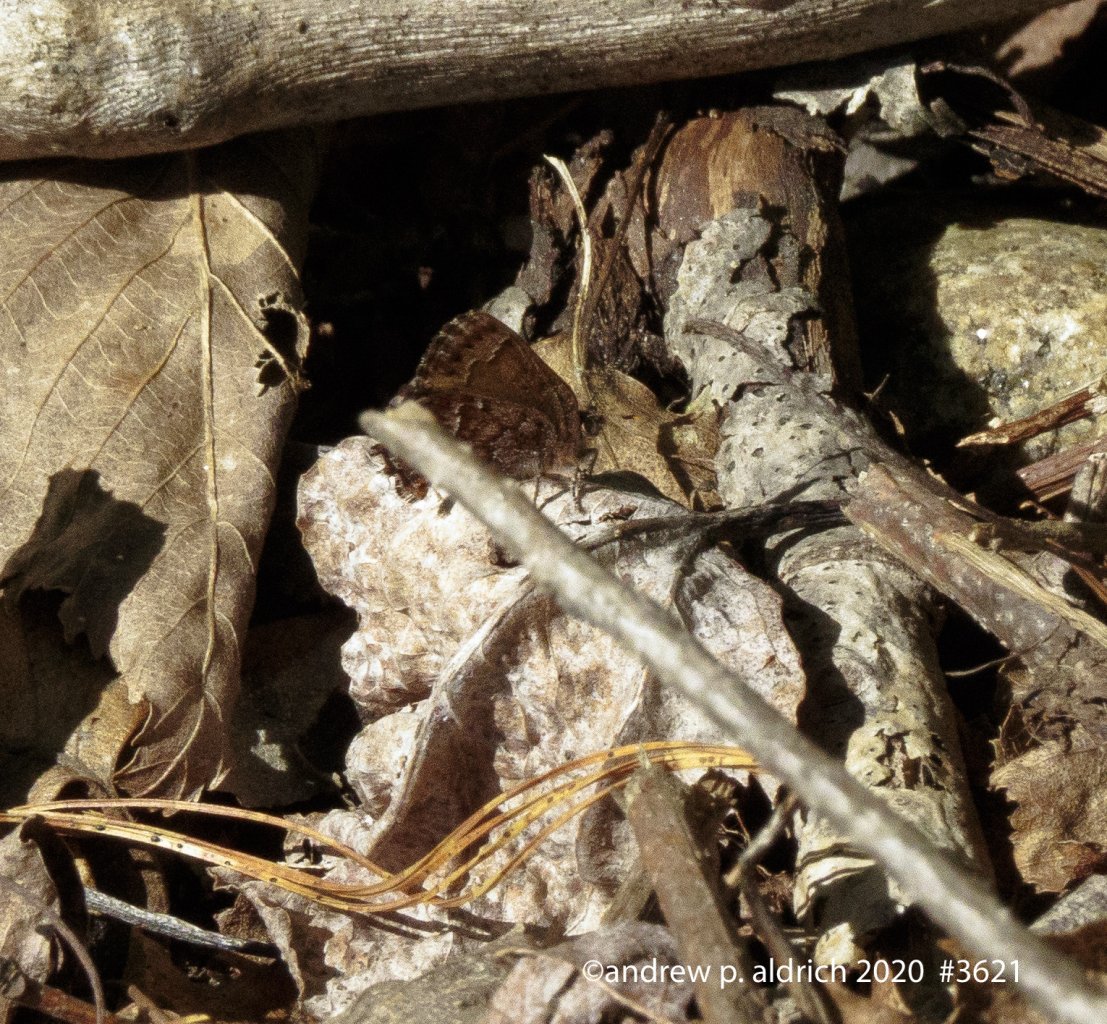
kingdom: Animalia
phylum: Arthropoda
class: Insecta
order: Lepidoptera
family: Lycaenidae
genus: Incisalia
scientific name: Incisalia niphon
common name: Eastern Pine Elfin
